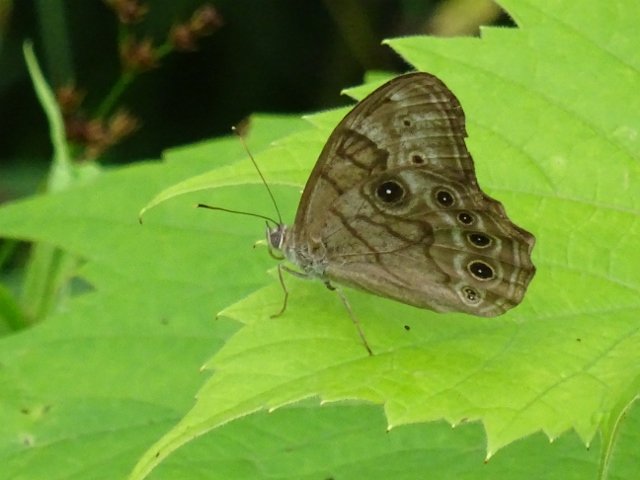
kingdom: Animalia
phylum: Arthropoda
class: Insecta
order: Lepidoptera
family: Nymphalidae
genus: Lethe
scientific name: Lethe anthedon
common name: Northern Pearly-Eye
